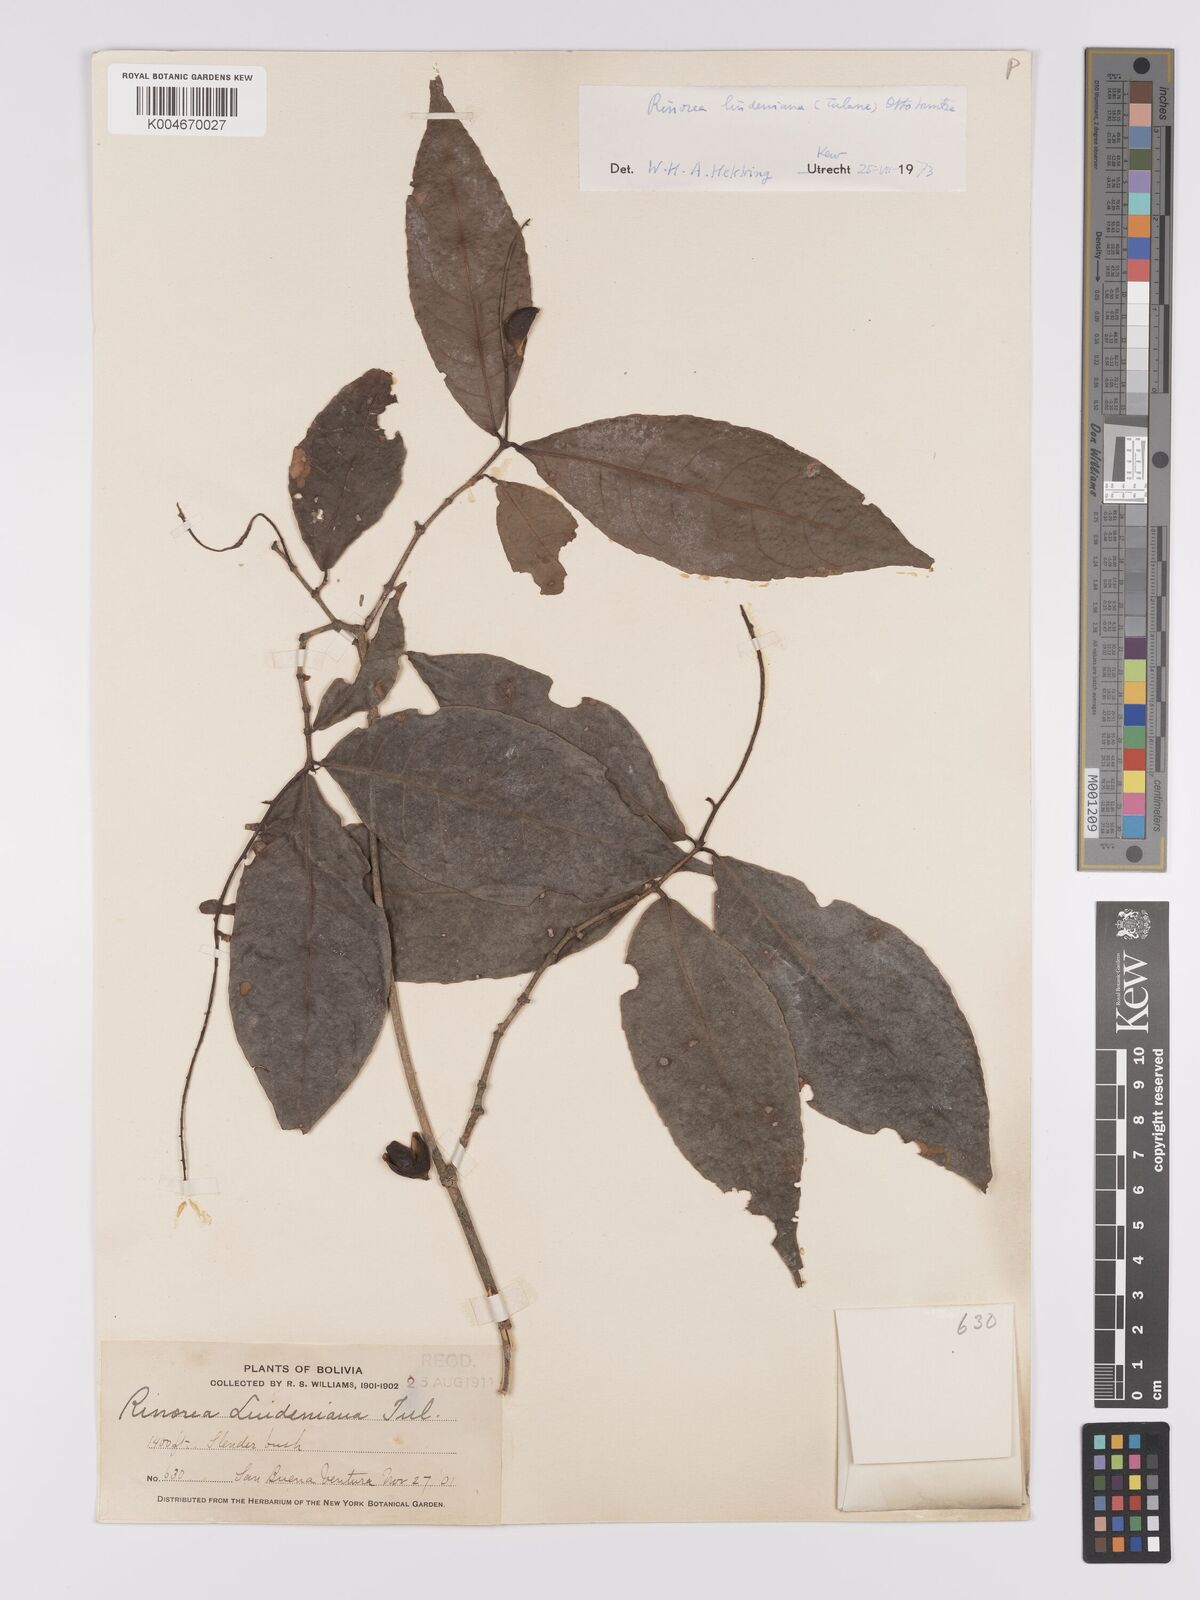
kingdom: Plantae
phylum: Tracheophyta
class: Magnoliopsida
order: Malpighiales
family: Violaceae
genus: Rinorea
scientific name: Rinorea lindeniana
